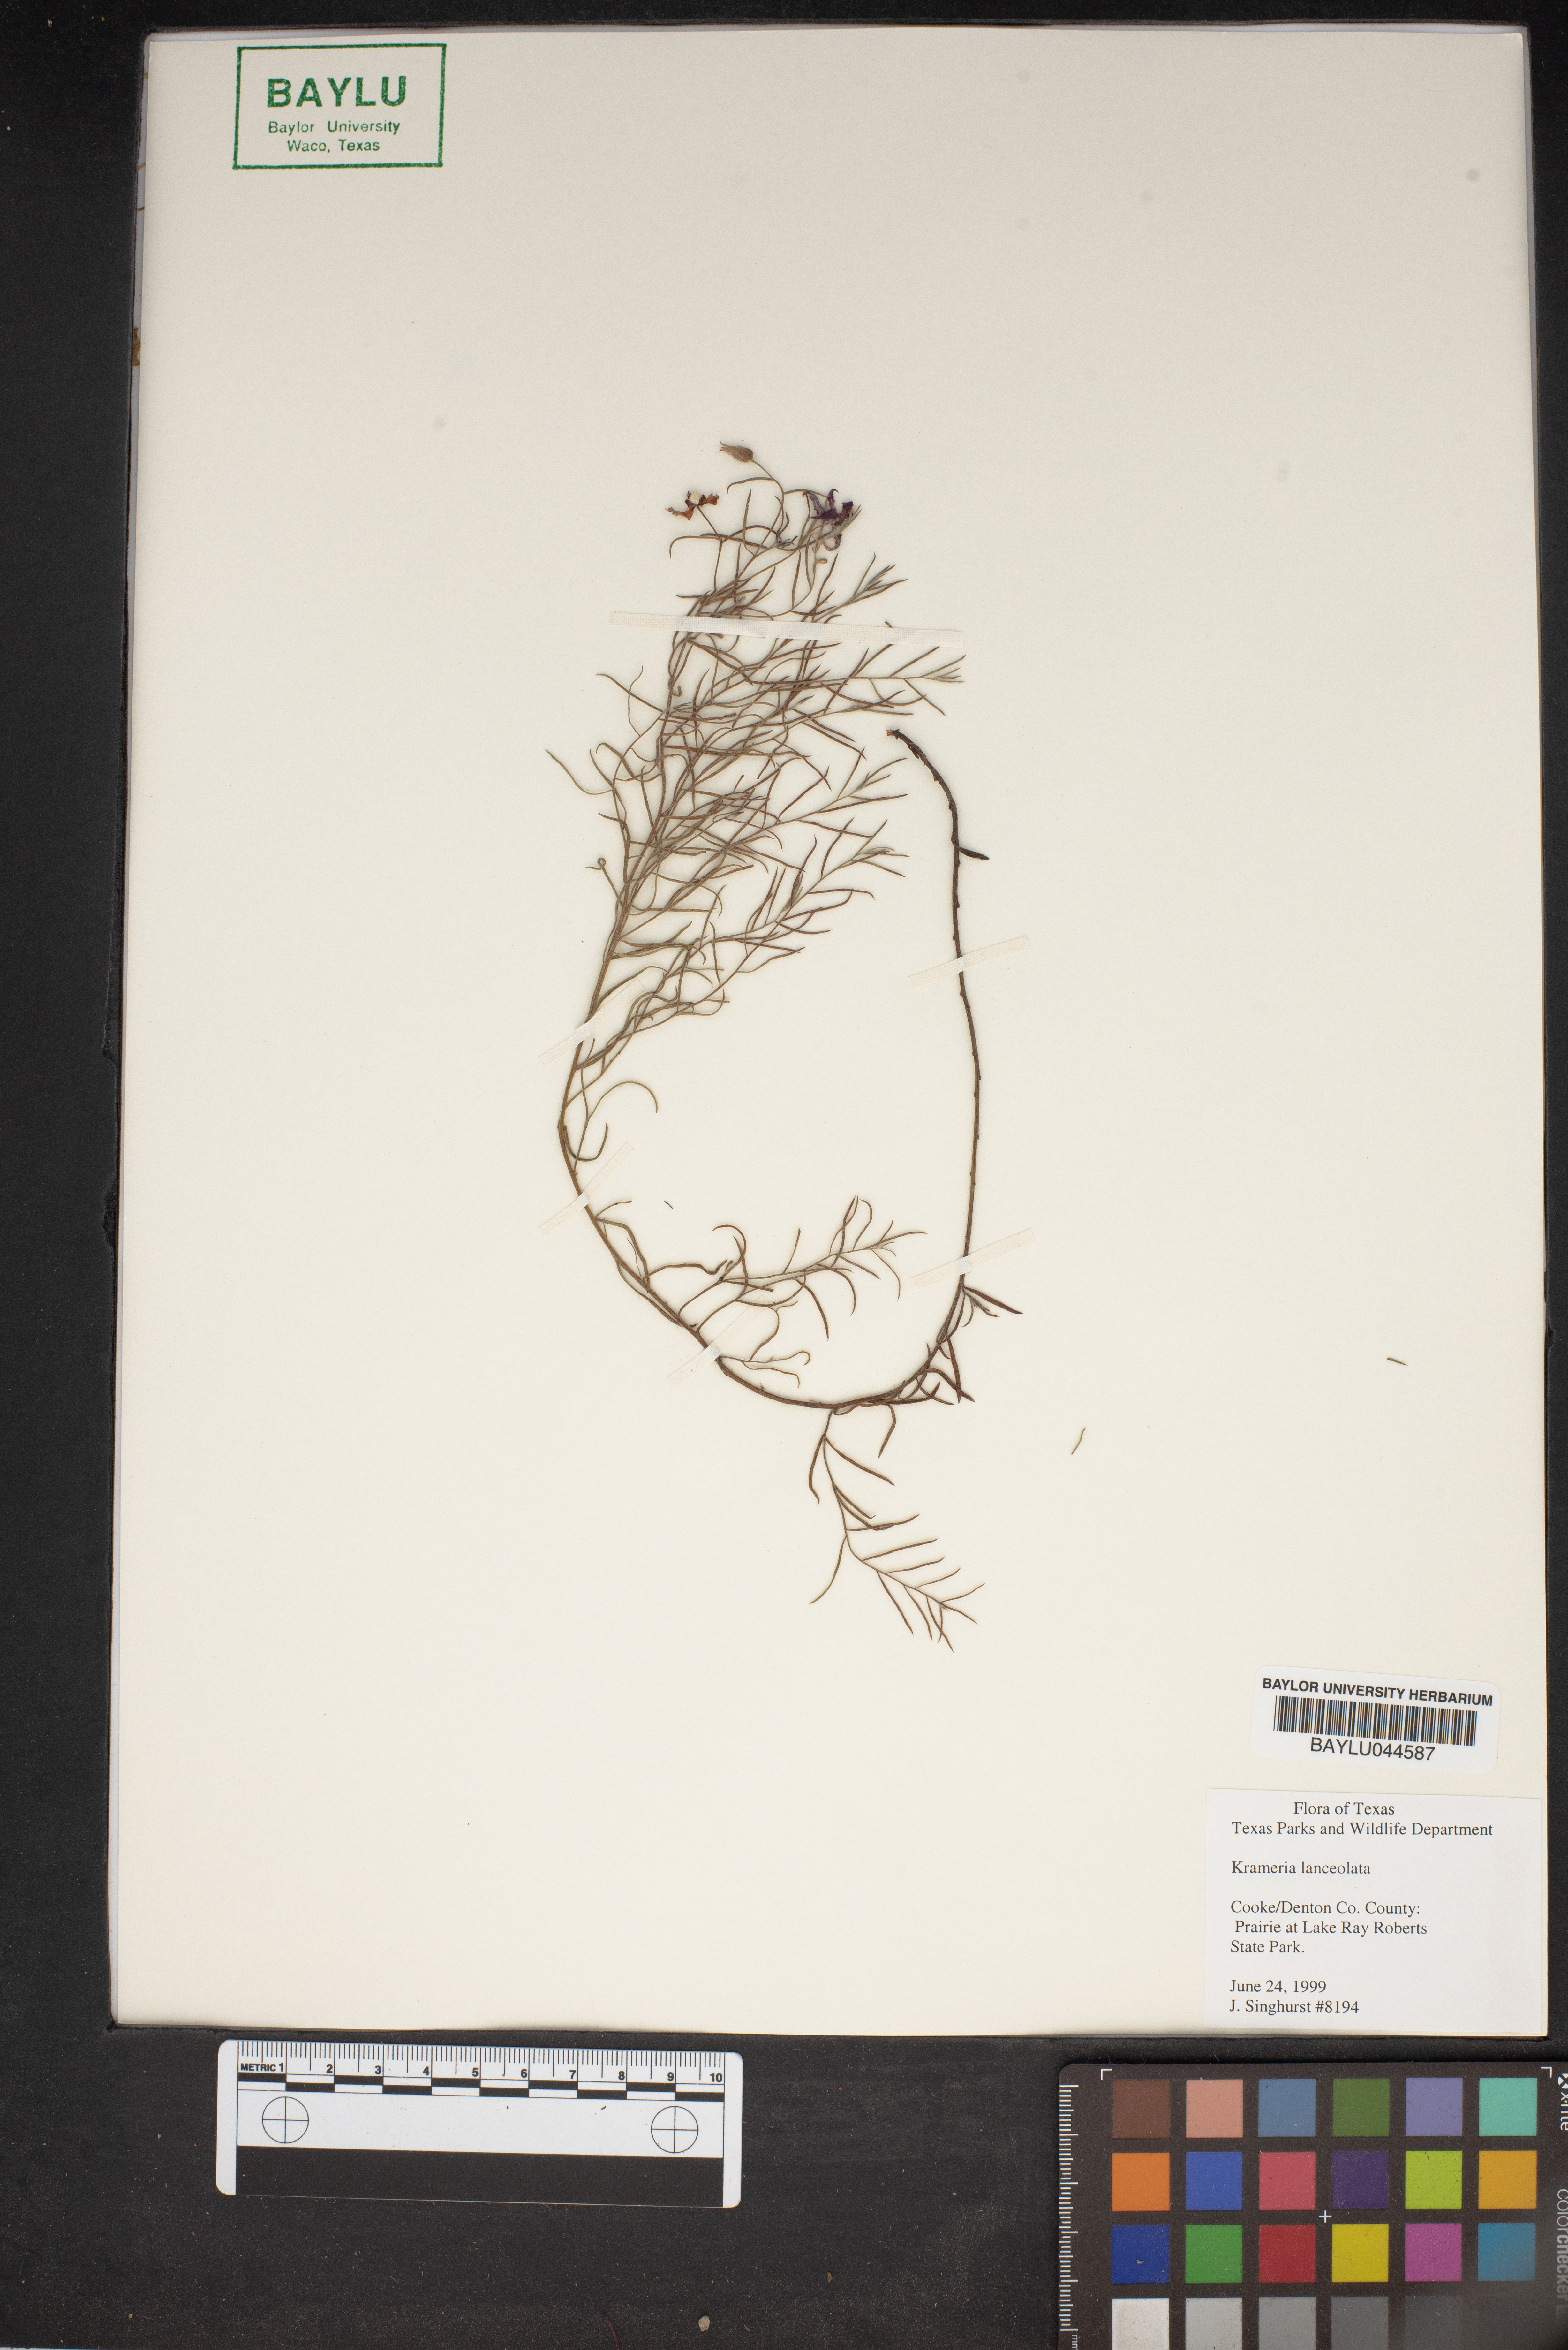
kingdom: Plantae
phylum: Tracheophyta
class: Magnoliopsida
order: Zygophyllales
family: Krameriaceae
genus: Krameria
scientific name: Krameria lanceolata
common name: Ratany
